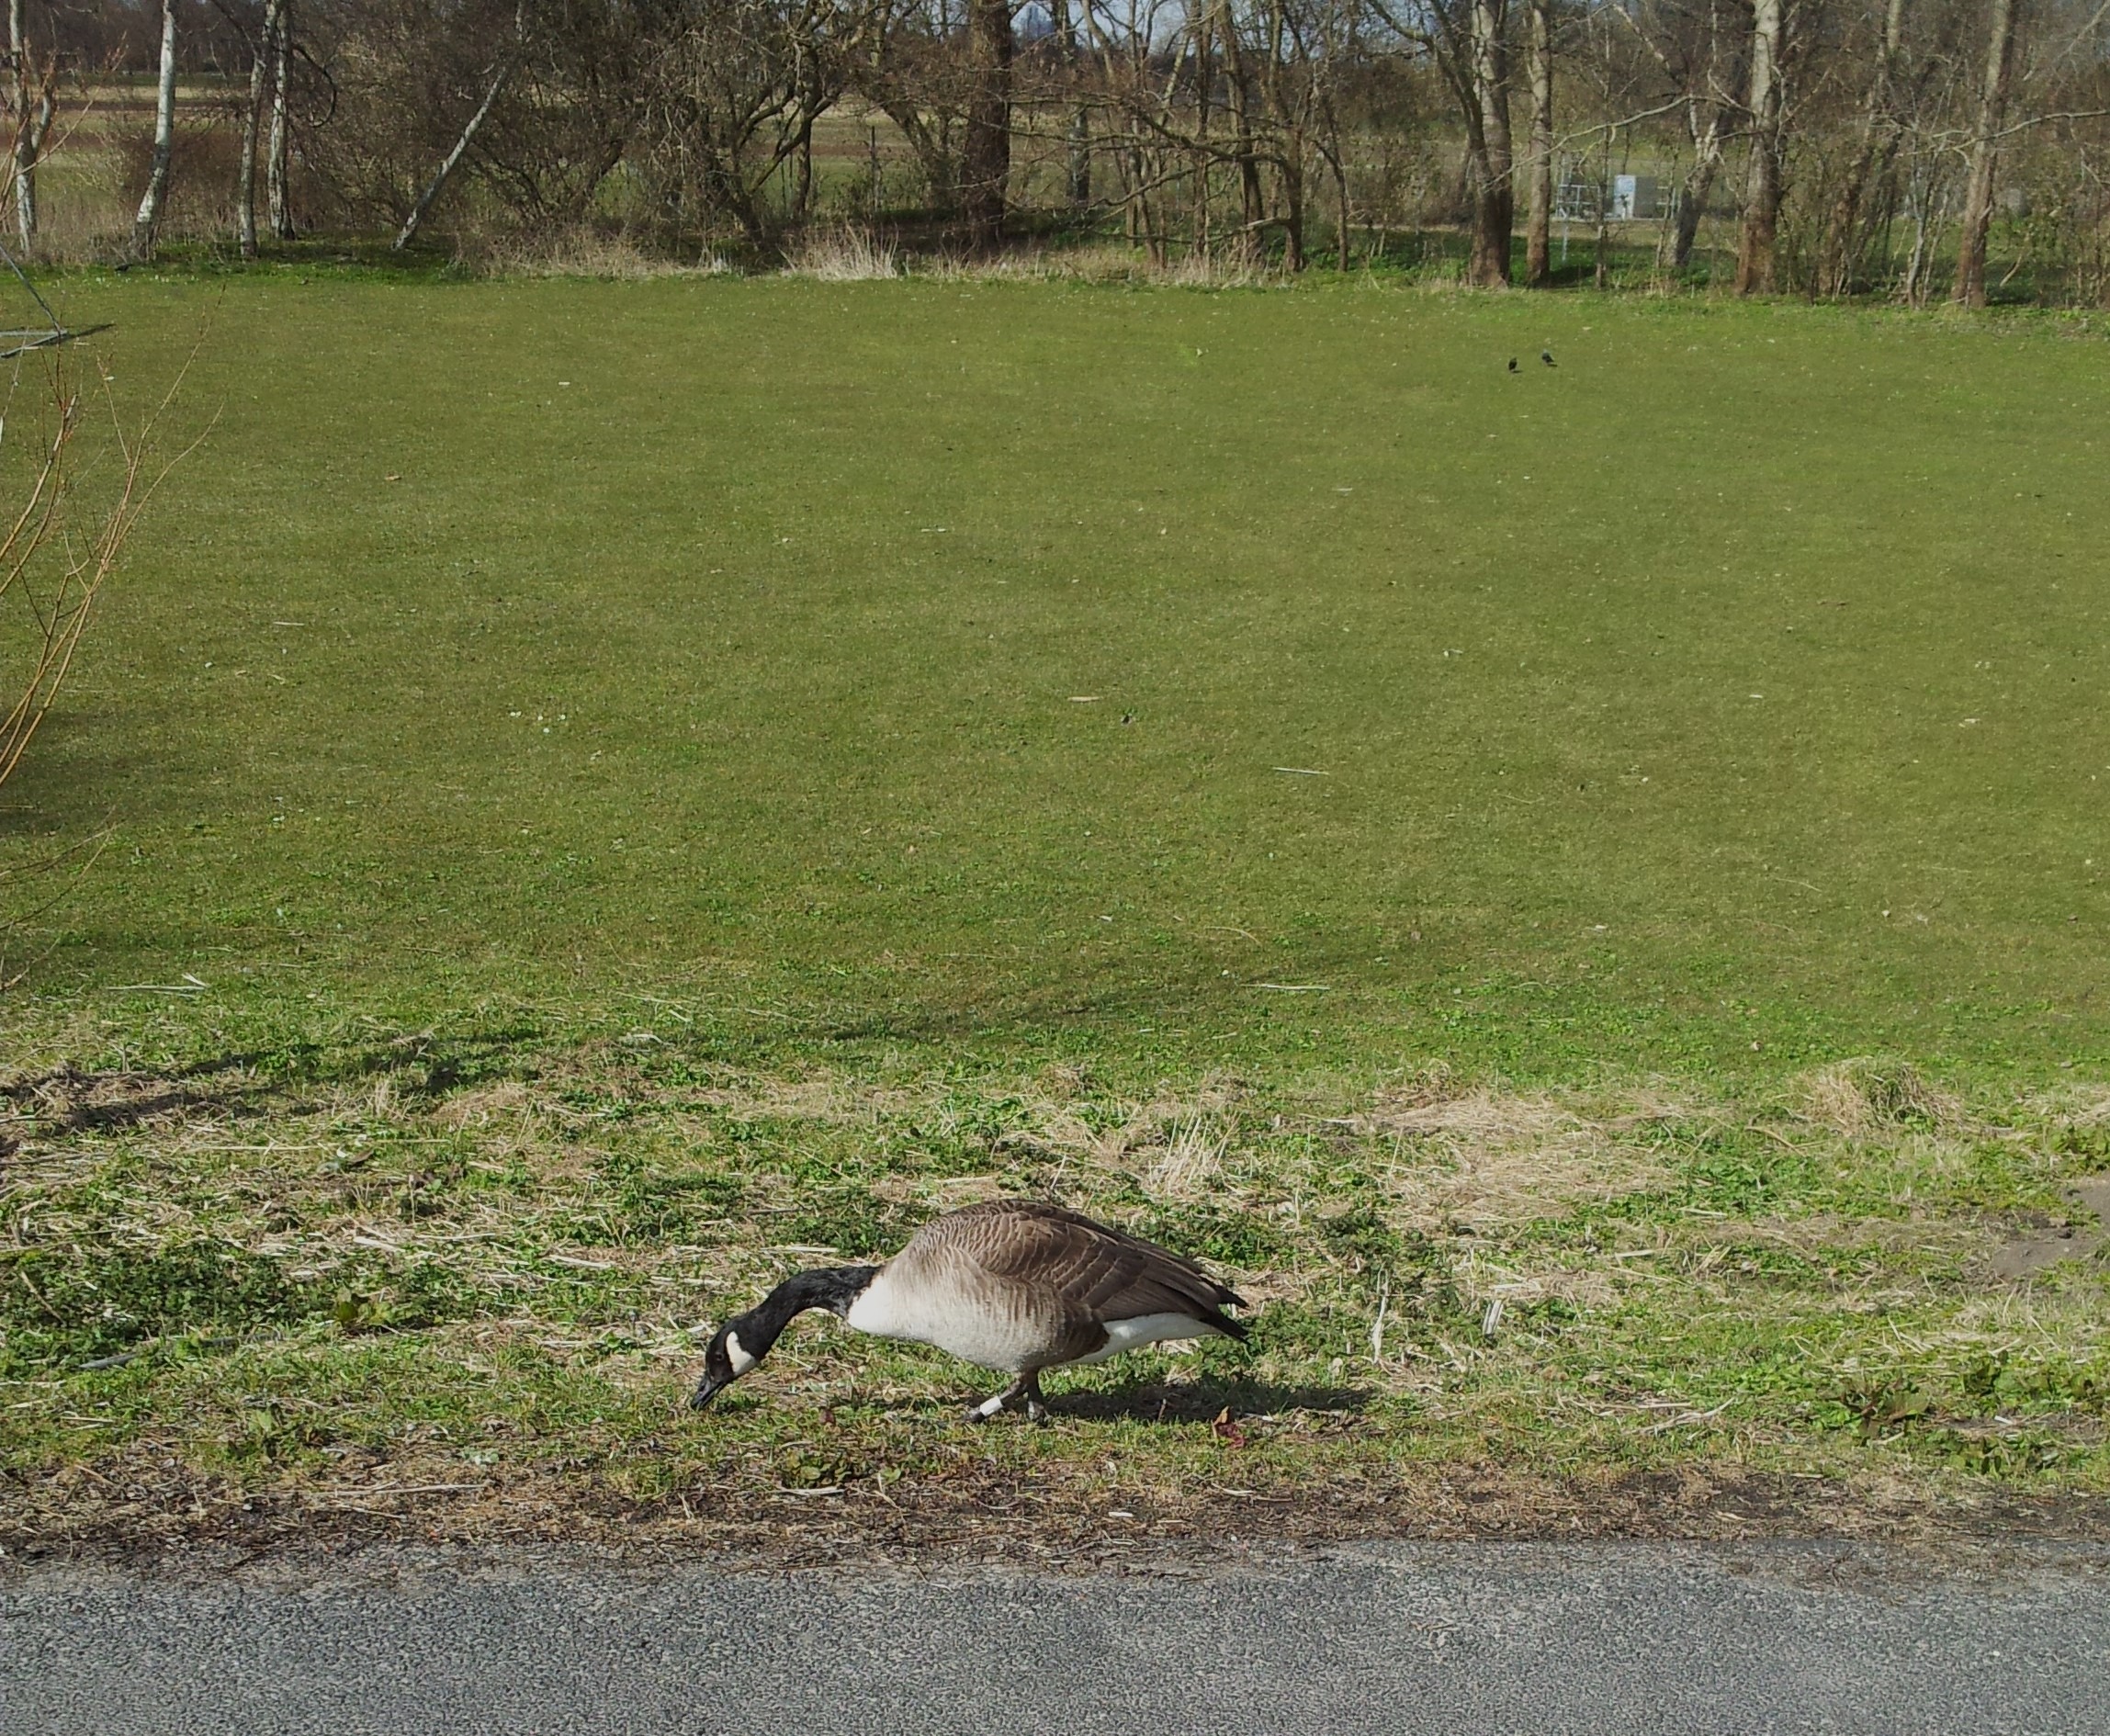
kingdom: Animalia
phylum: Chordata
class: Aves
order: Anseriformes
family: Anatidae
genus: Branta
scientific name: Branta canadensis
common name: Canadagås
